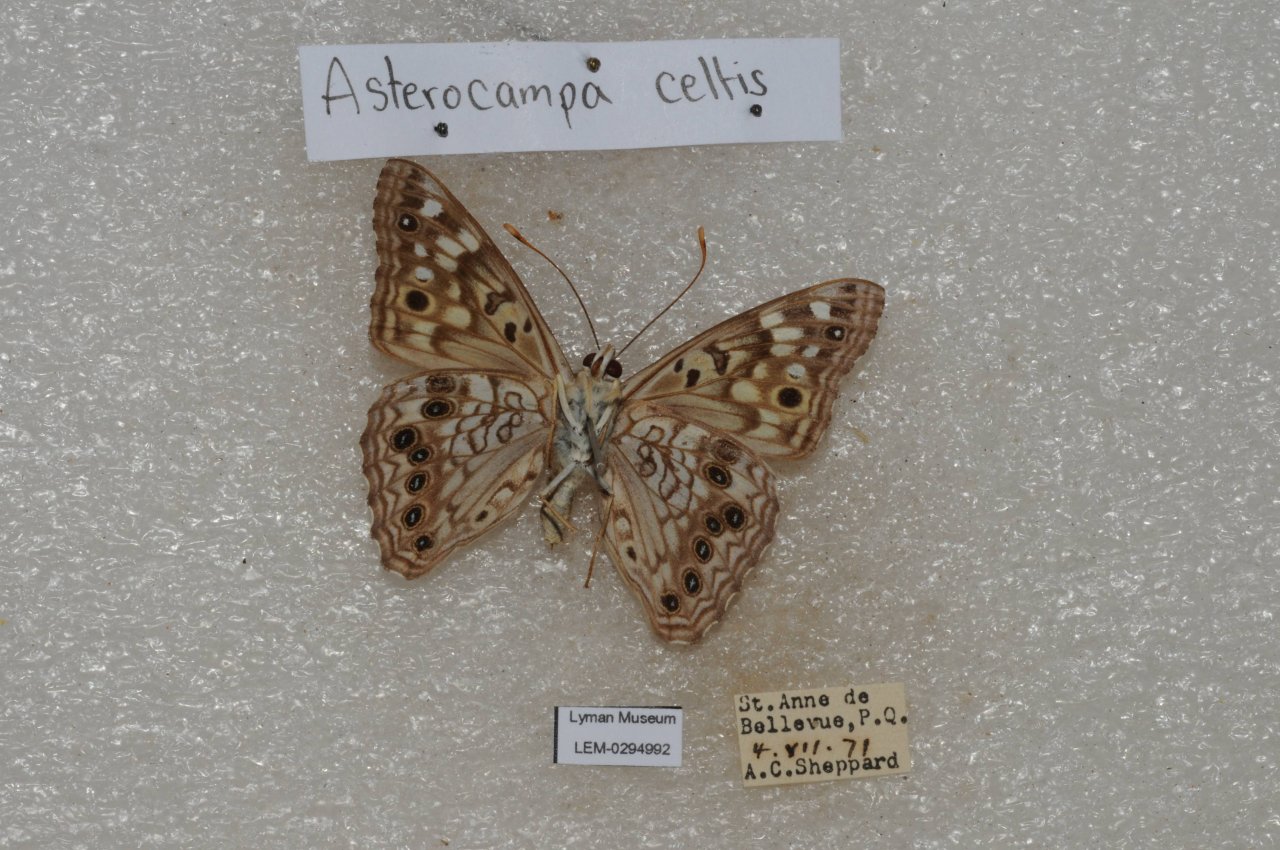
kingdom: Animalia
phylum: Arthropoda
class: Insecta
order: Lepidoptera
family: Nymphalidae
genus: Asterocampa
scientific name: Asterocampa celtis
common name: Hackberry Emperor
